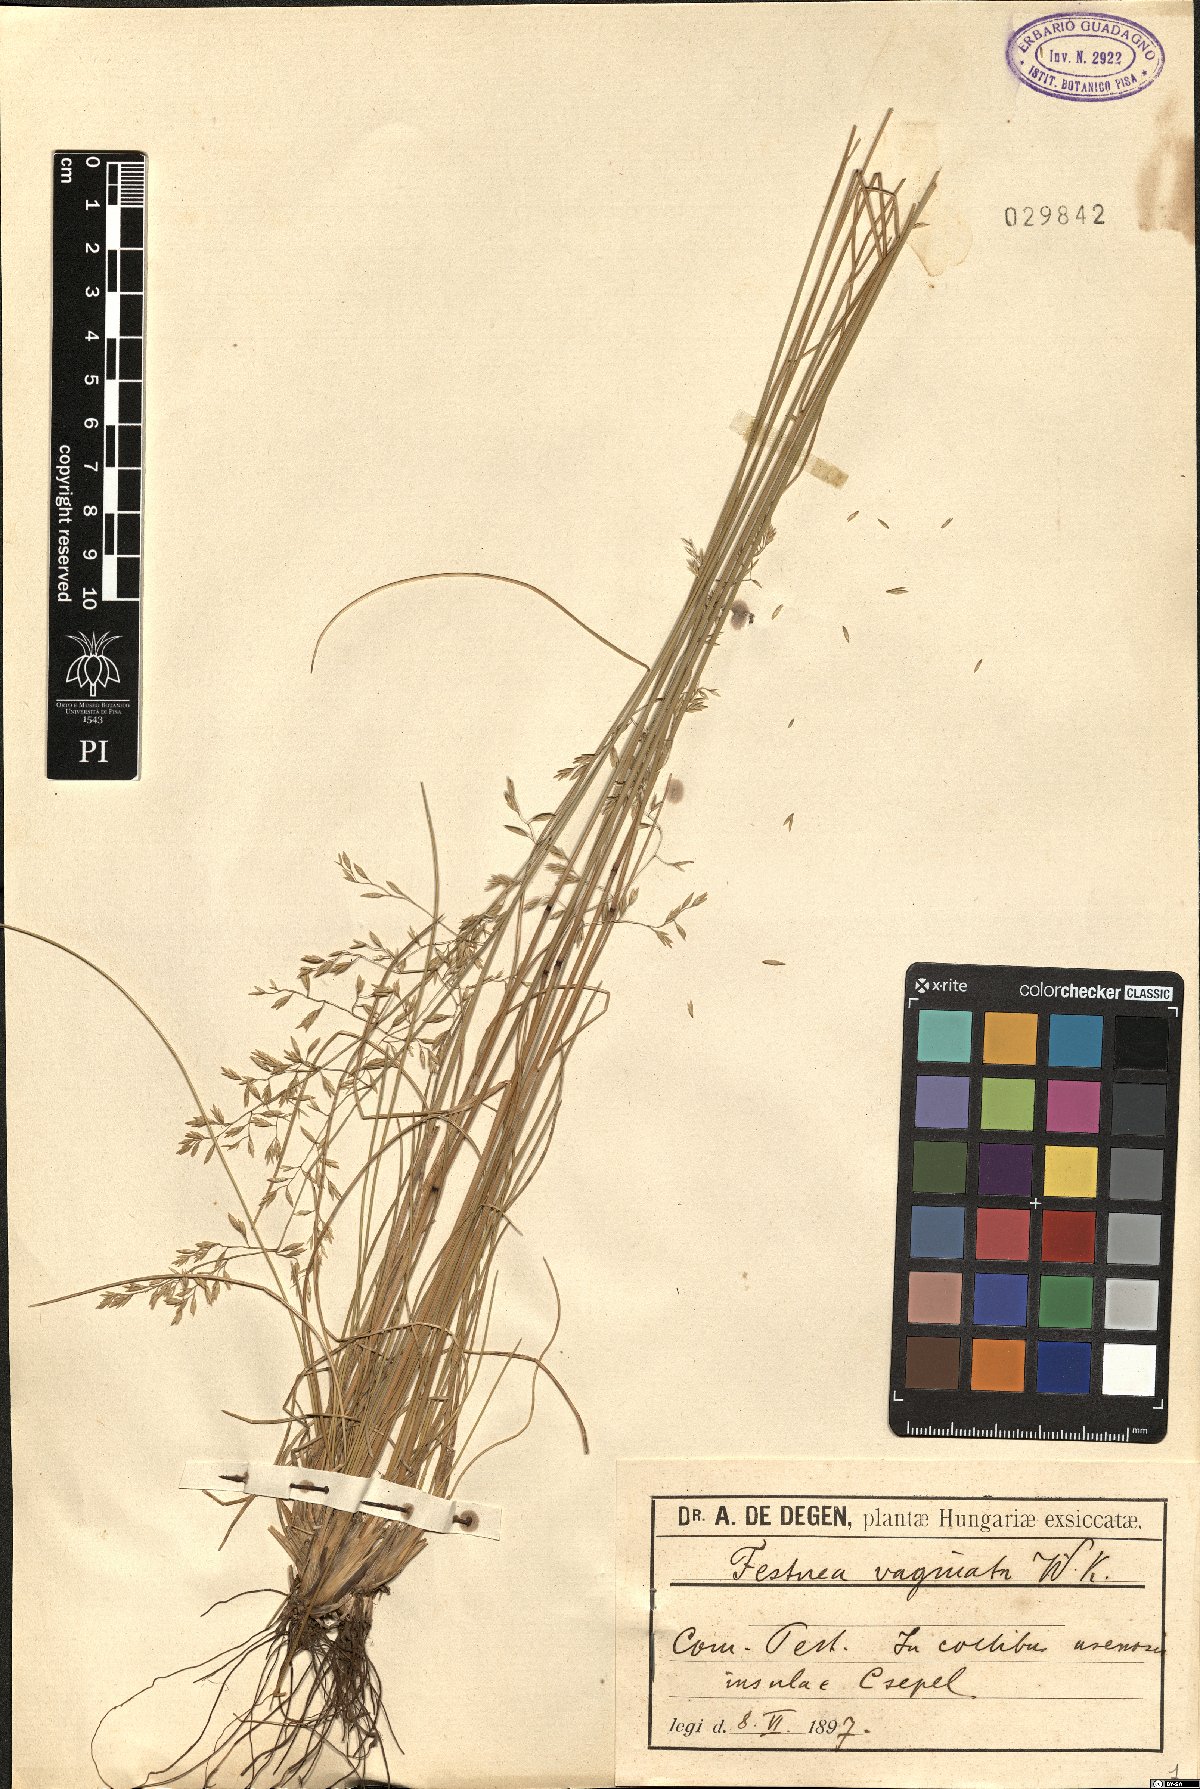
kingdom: Plantae
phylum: Tracheophyta
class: Liliopsida
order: Poales
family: Poaceae
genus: Festuca
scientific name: Festuca vaginata
